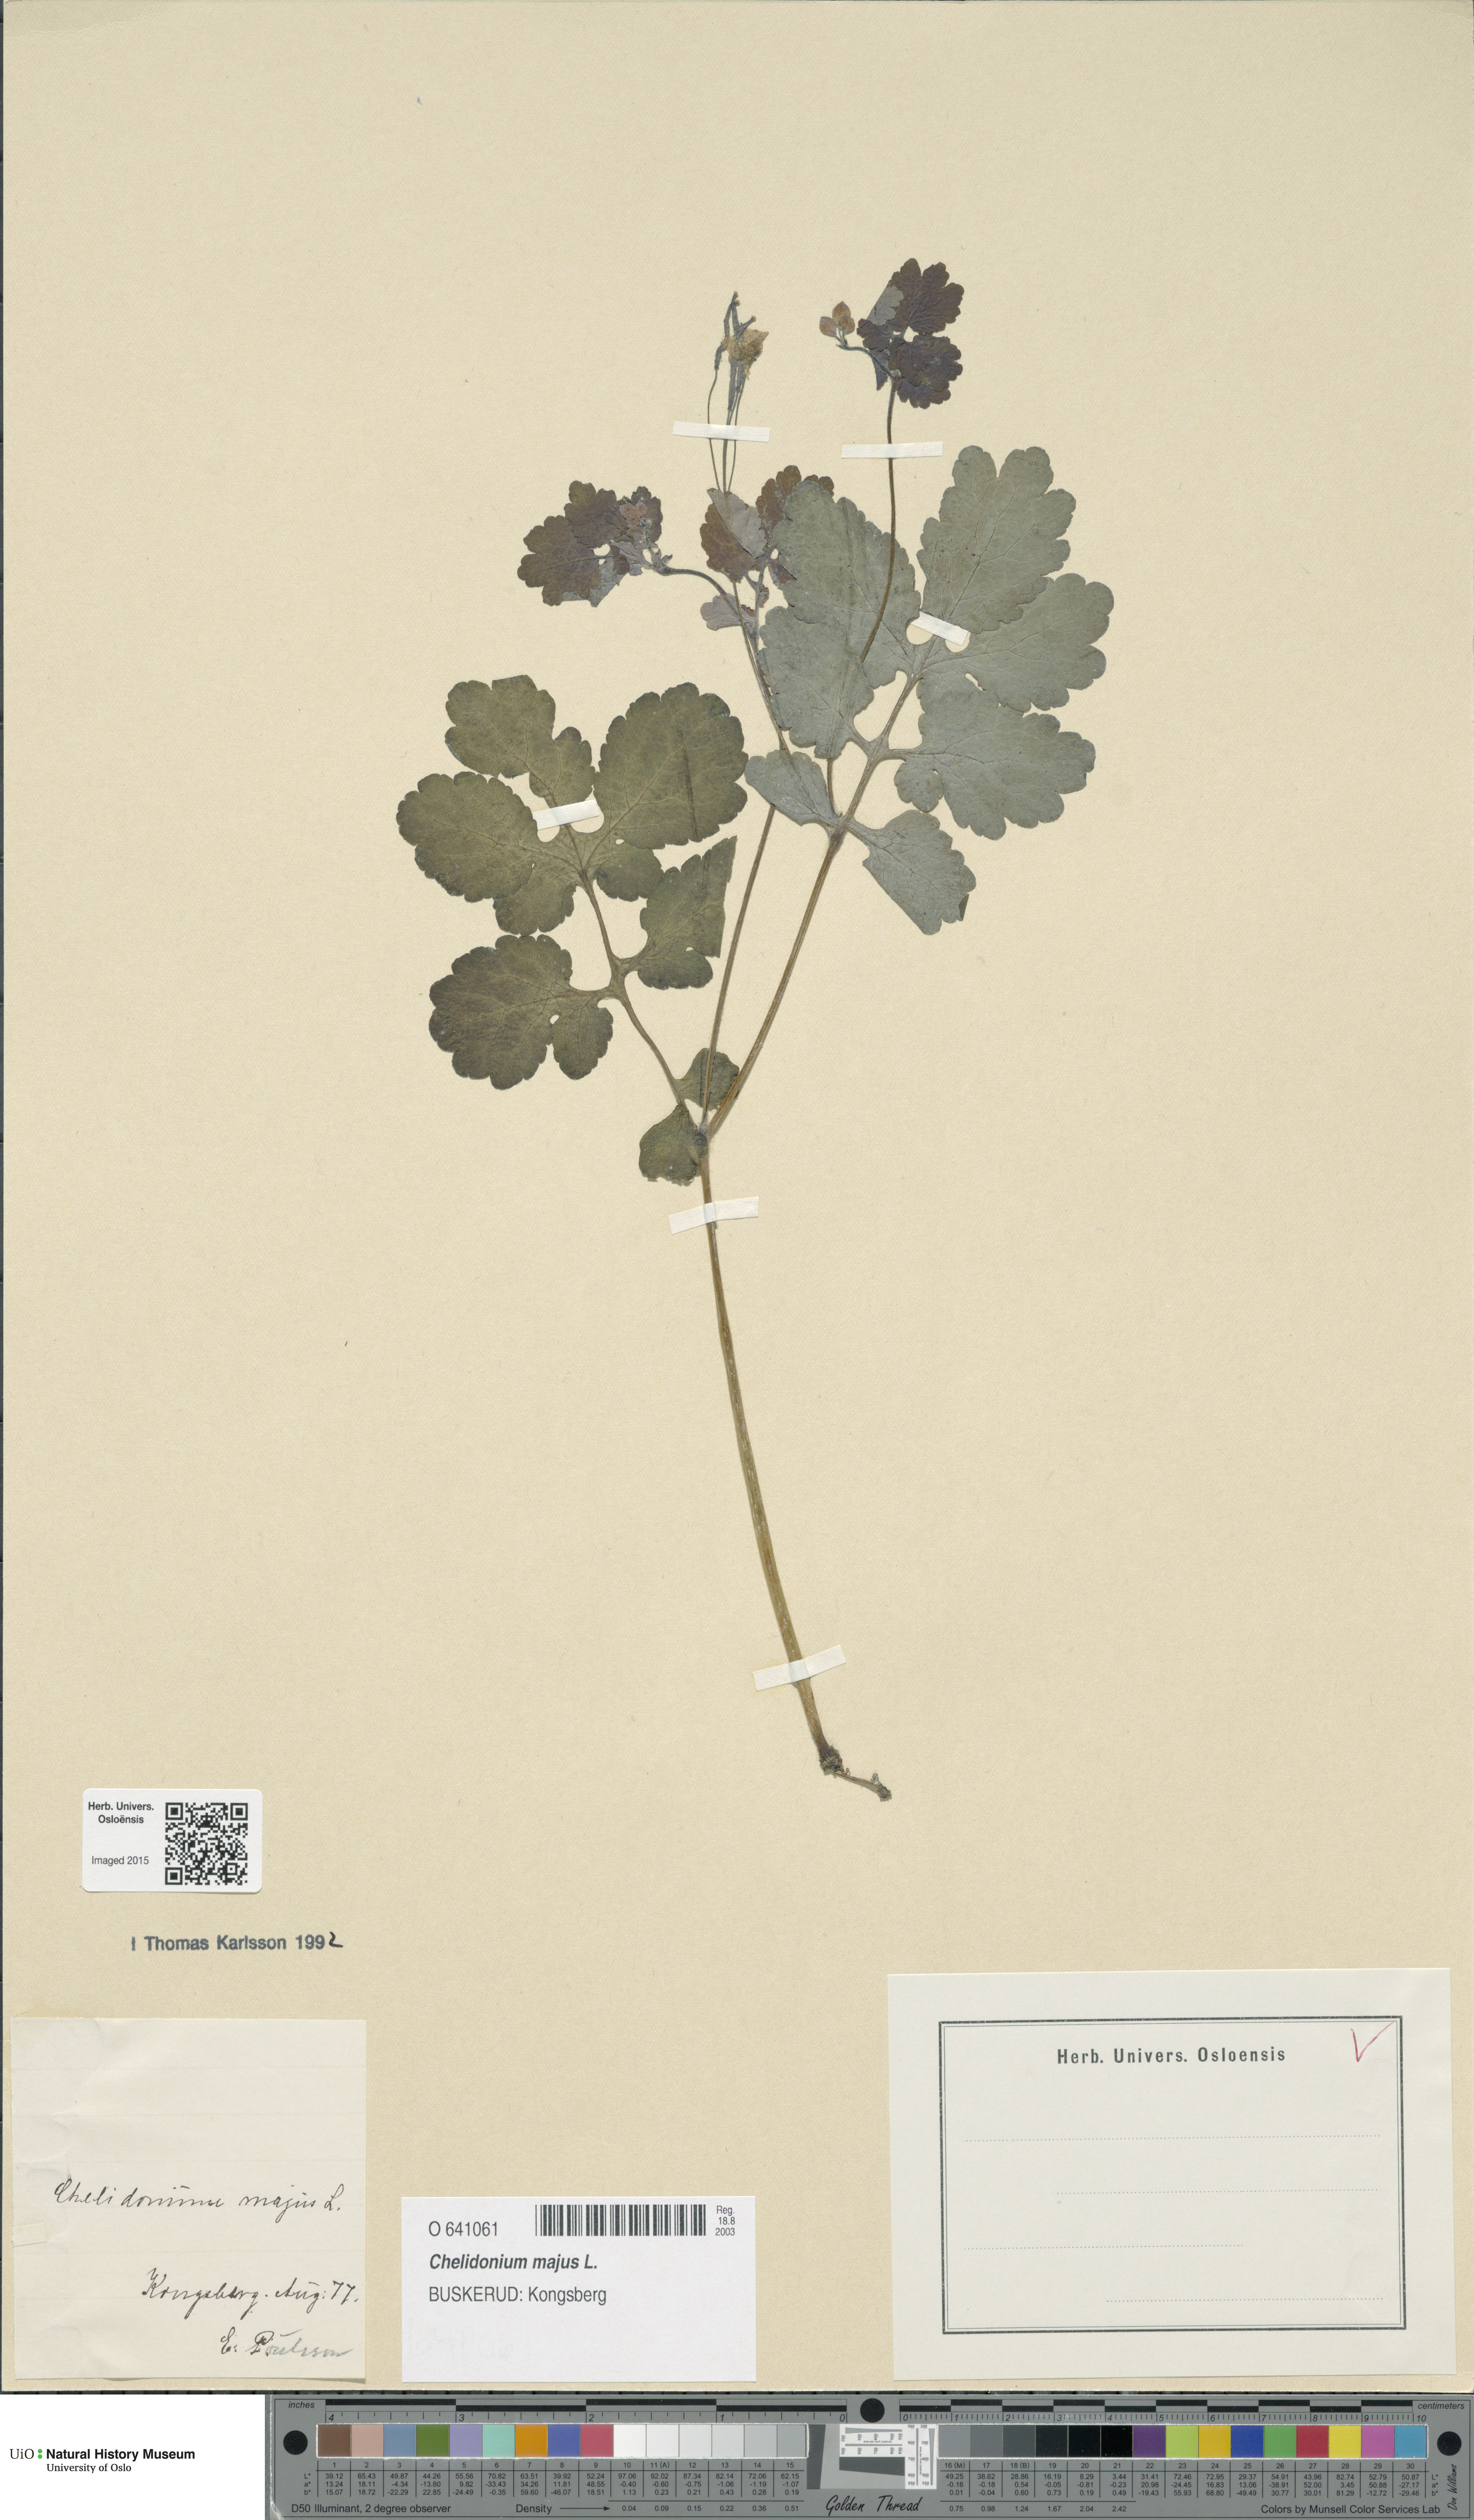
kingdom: Plantae
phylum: Tracheophyta
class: Magnoliopsida
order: Ranunculales
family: Papaveraceae
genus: Chelidonium
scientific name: Chelidonium majus
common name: Greater celandine
